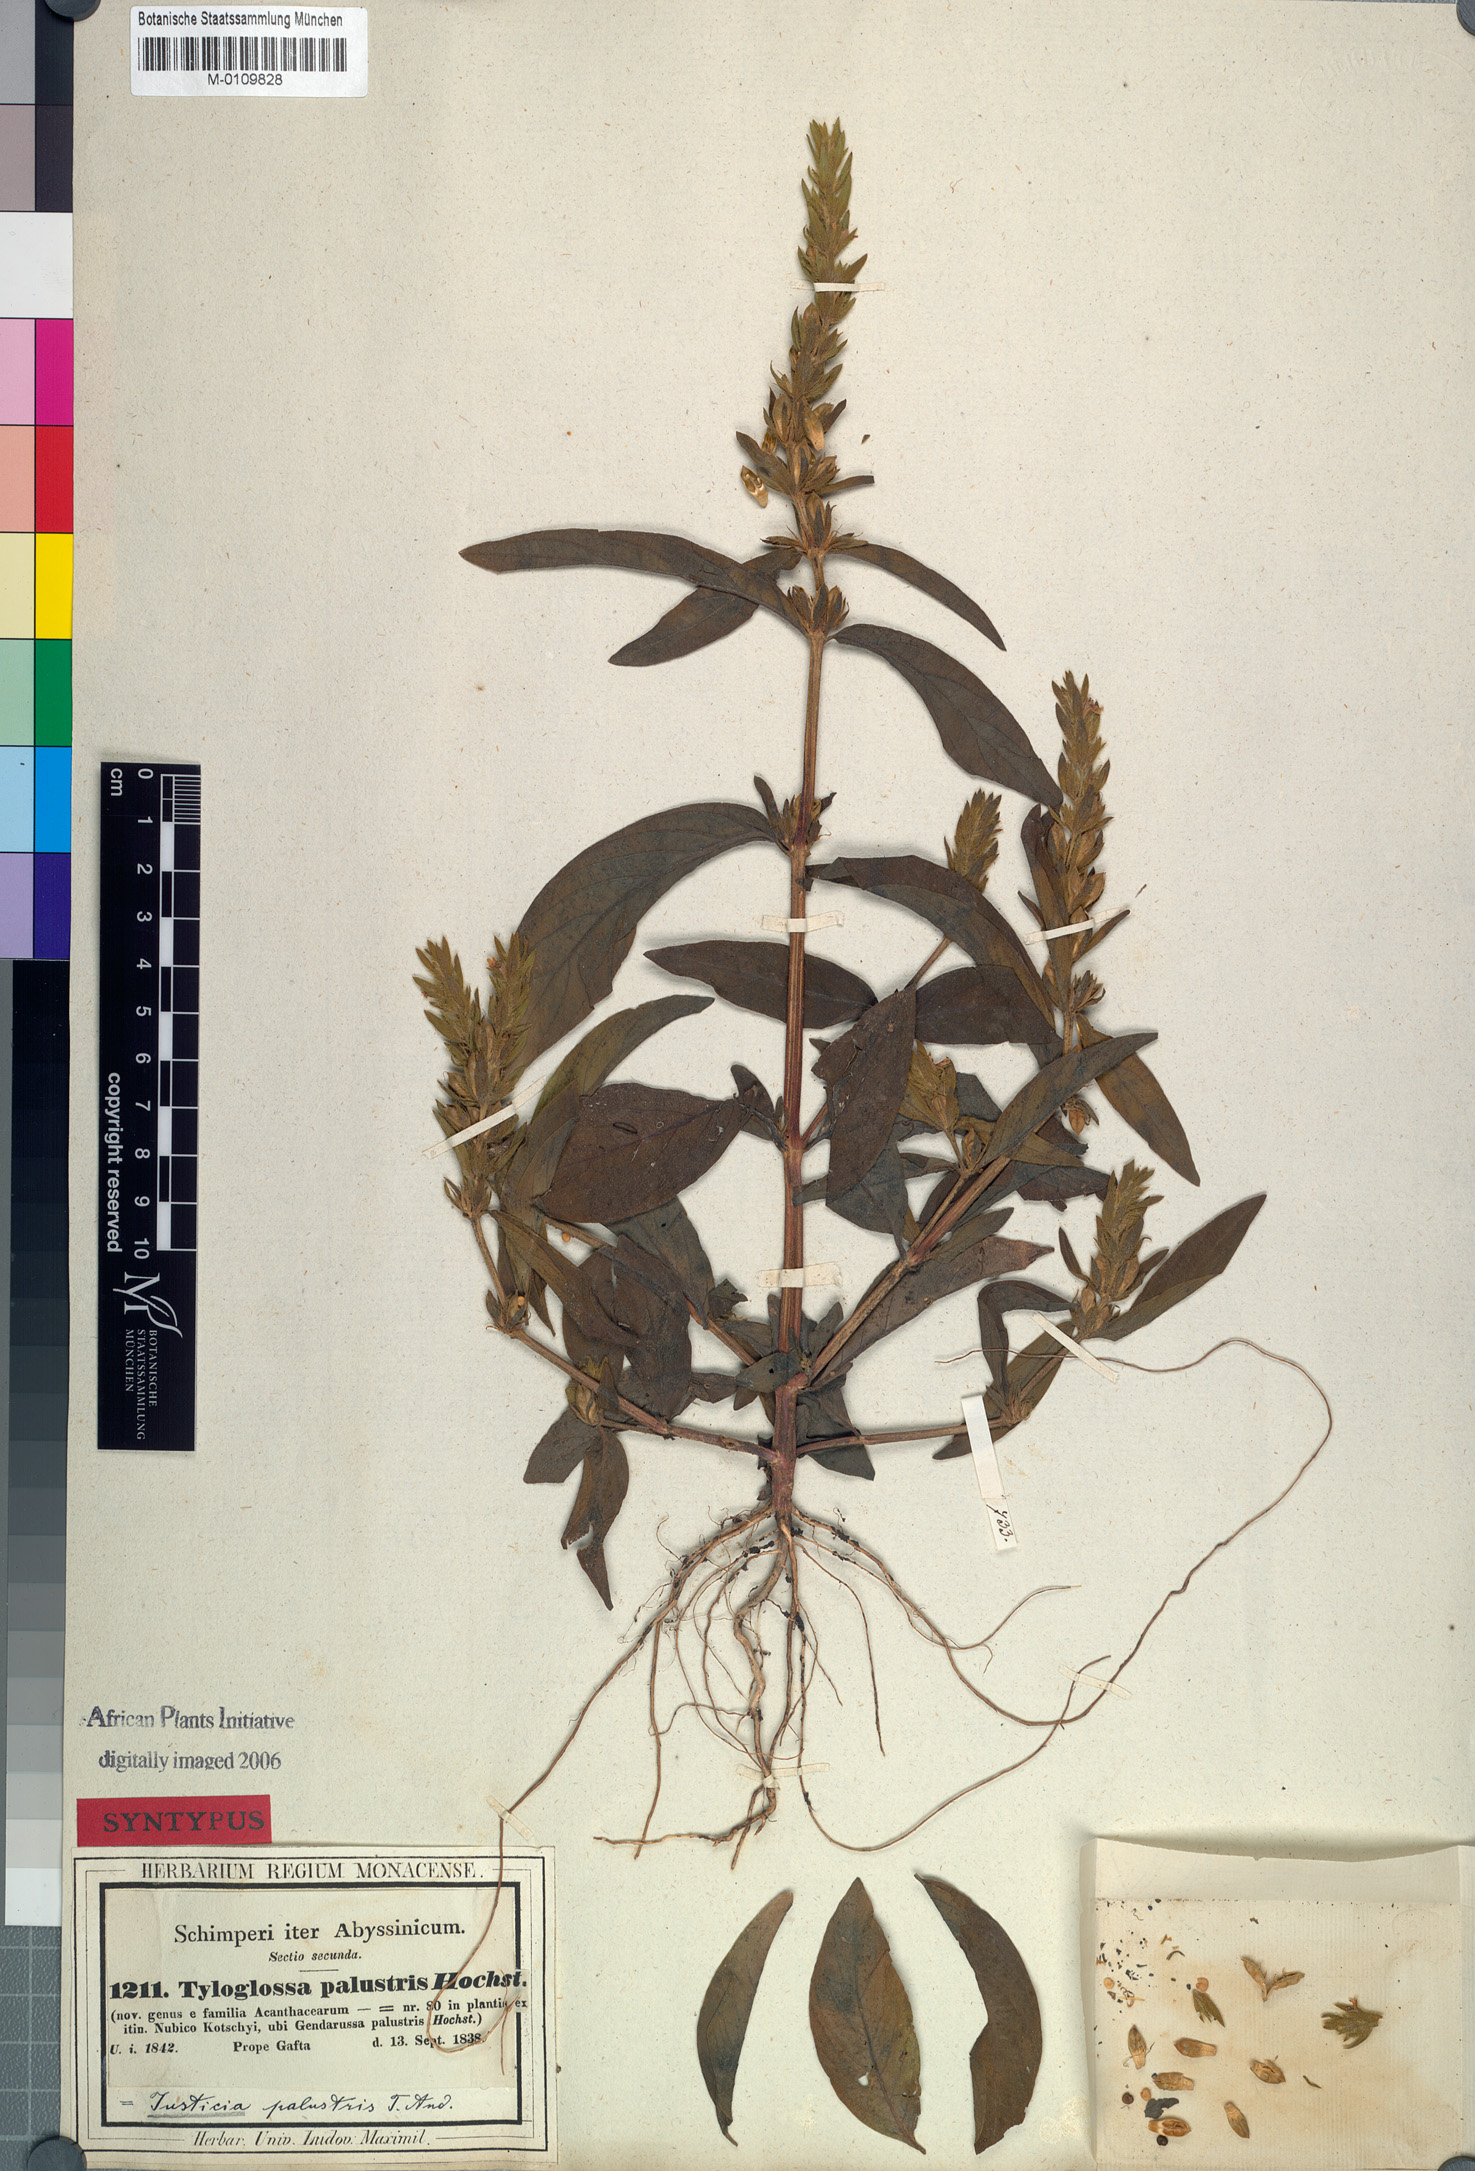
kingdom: Plantae
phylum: Tracheophyta
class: Magnoliopsida
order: Lamiales
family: Acanthaceae
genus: Justicia
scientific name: Justicia flava
